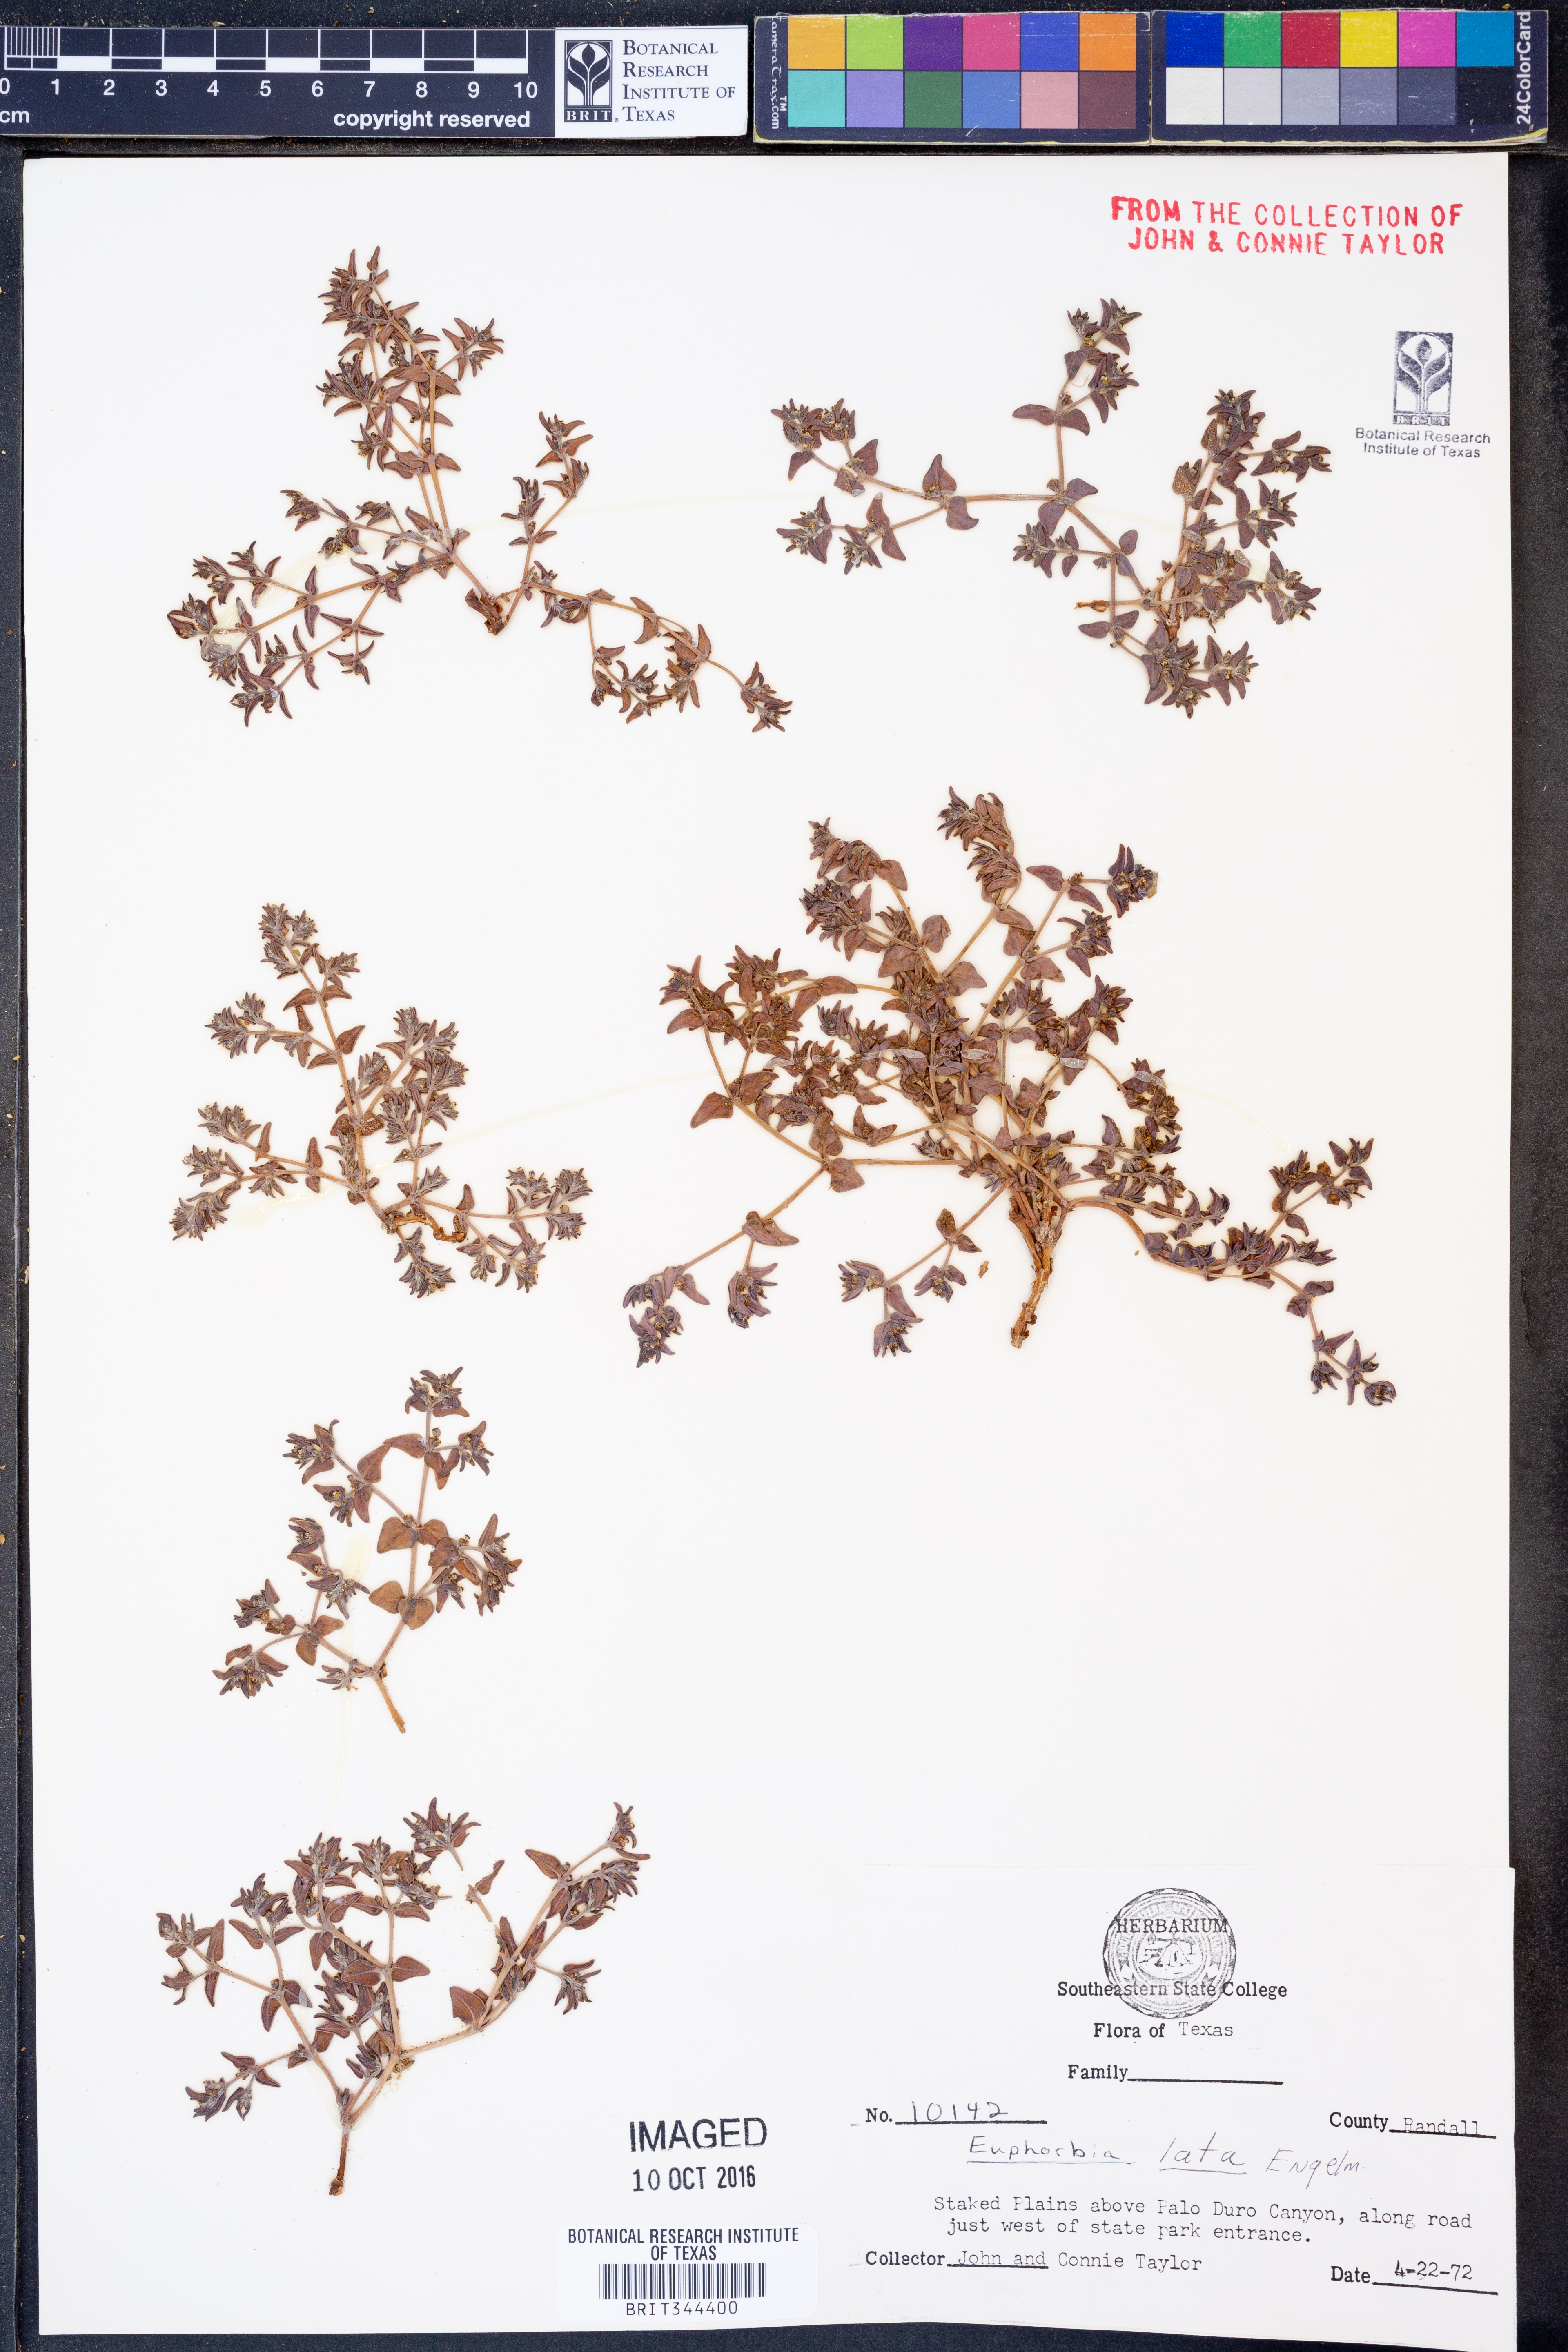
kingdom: Plantae
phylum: Tracheophyta
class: Magnoliopsida
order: Malpighiales
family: Euphorbiaceae
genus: Euphorbia
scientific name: Euphorbia lata
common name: Hoary euphorbia
